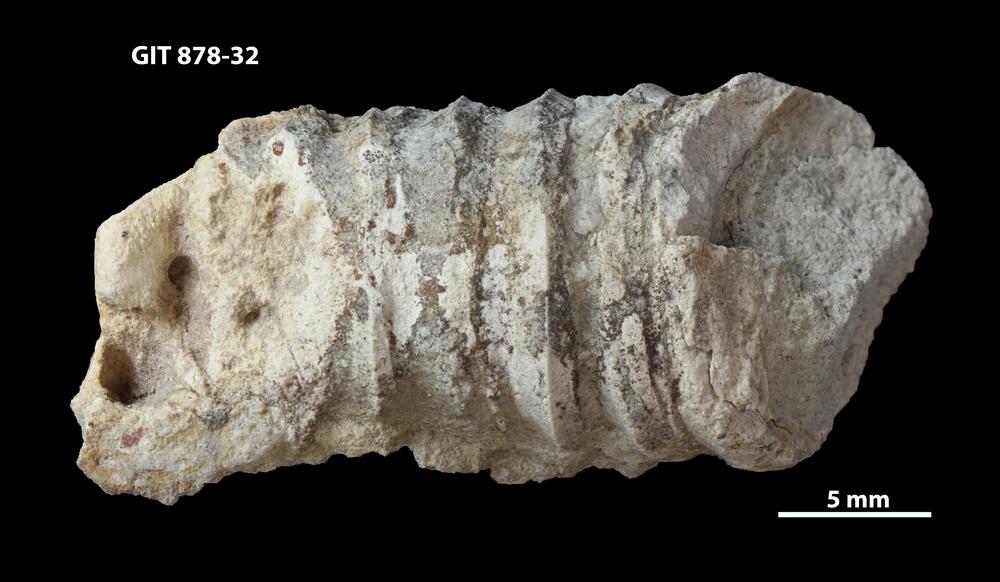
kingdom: Animalia
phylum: Mollusca
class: Cephalopoda
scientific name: Cephalopoda
